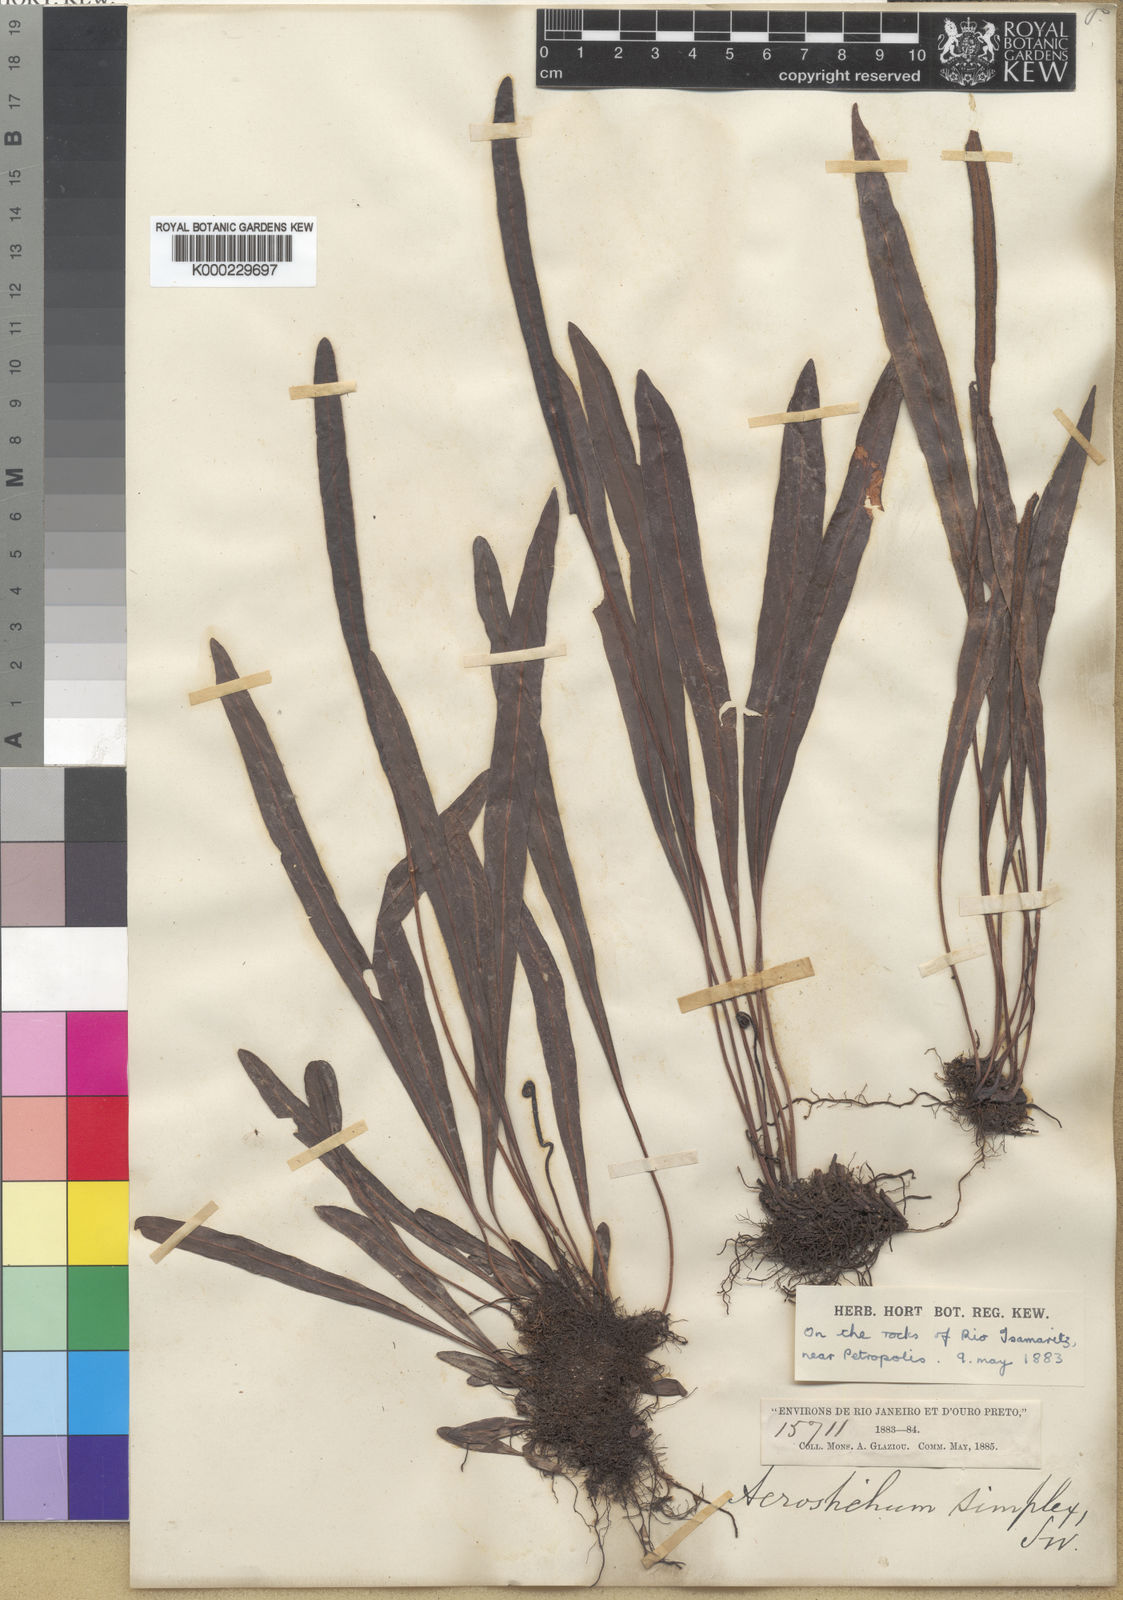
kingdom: Plantae
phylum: Tracheophyta
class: Polypodiopsida
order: Polypodiales
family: Dryopteridaceae
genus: Elaphoglossum
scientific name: Elaphoglossum burchellii
